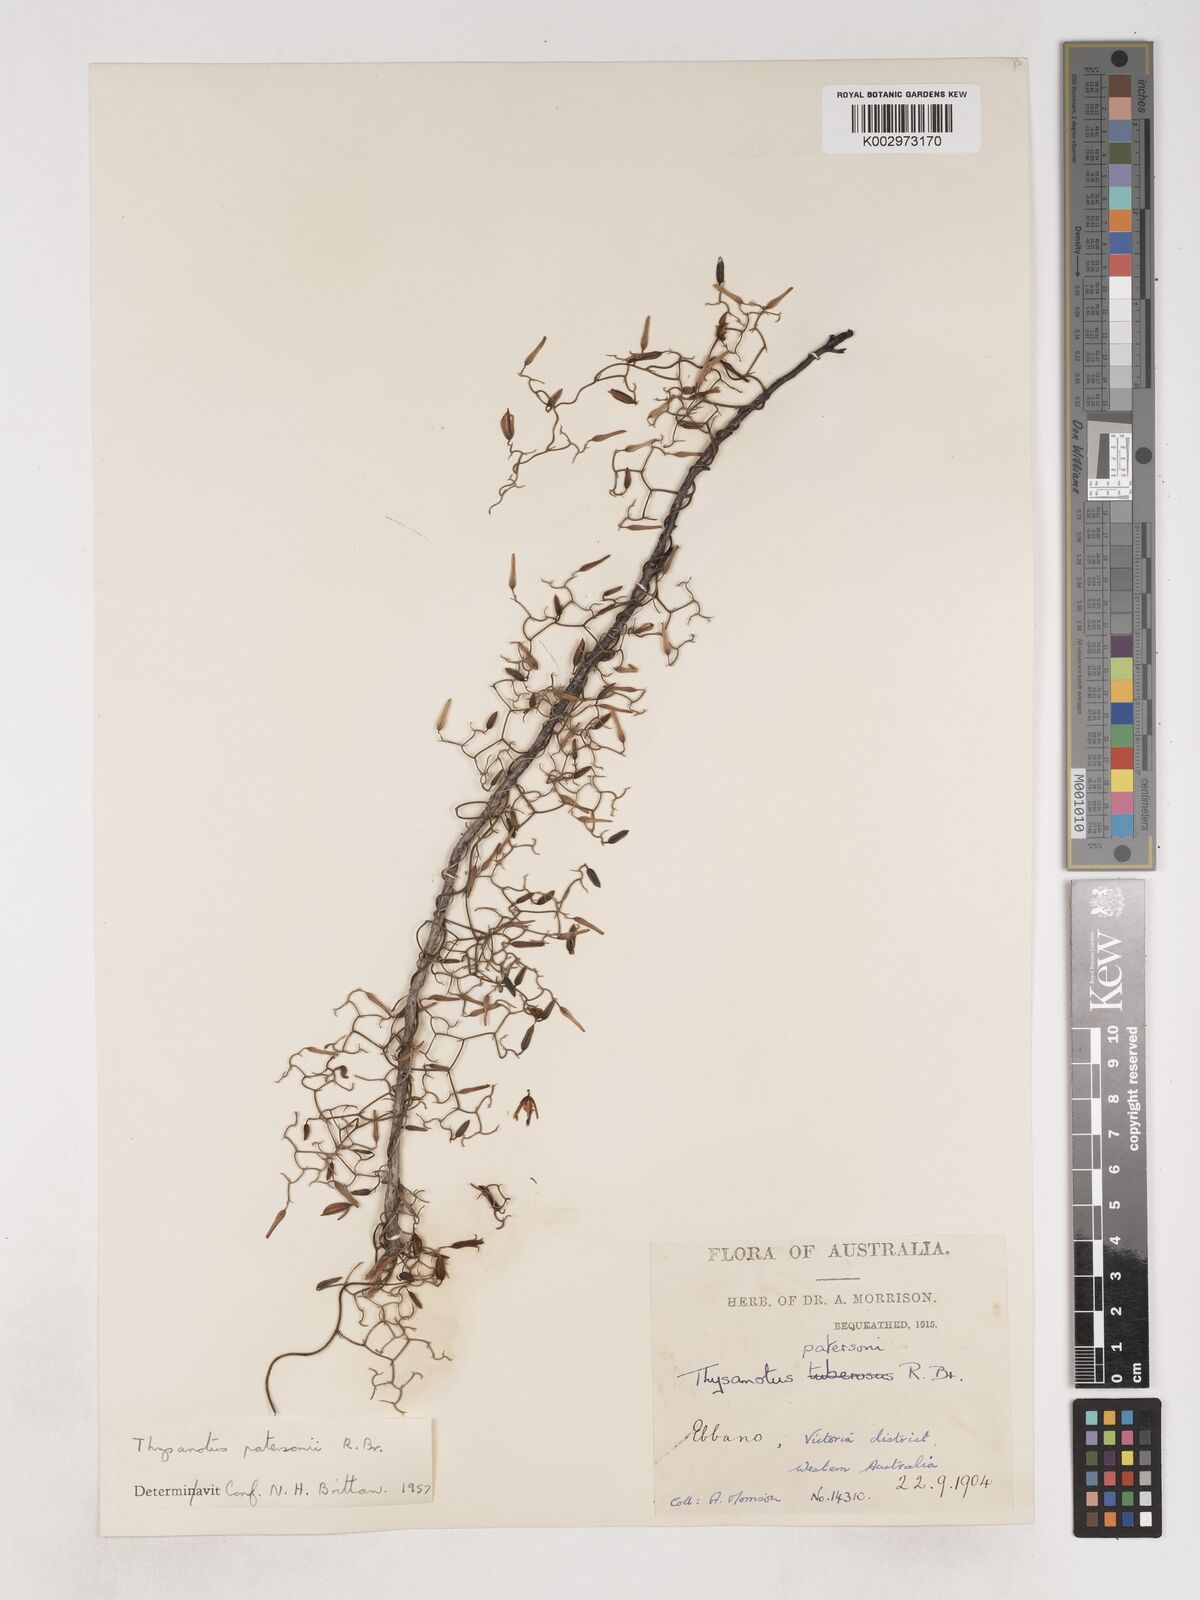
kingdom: Plantae
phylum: Tracheophyta
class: Liliopsida
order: Asparagales
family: Asparagaceae
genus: Thysanotus
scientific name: Thysanotus patersonii
